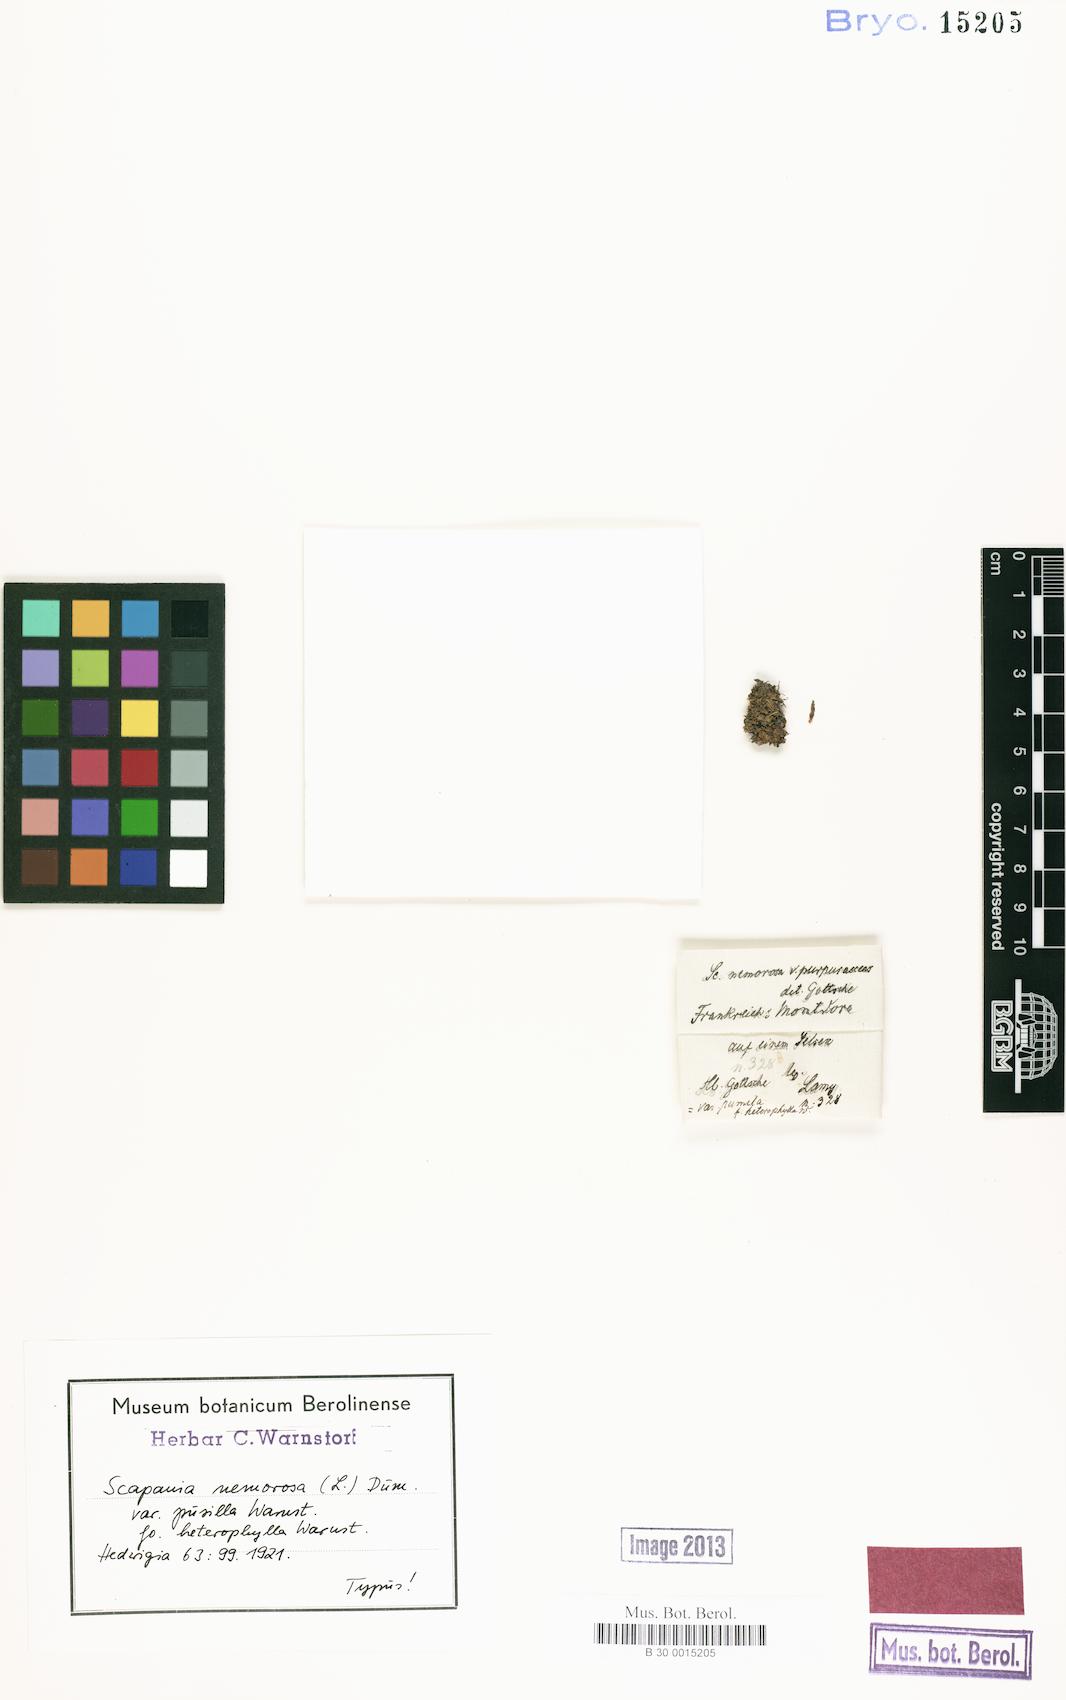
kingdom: Plantae
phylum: Marchantiophyta
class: Jungermanniopsida
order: Jungermanniales
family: Scapaniaceae
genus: Scapania
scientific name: Scapania nemorea
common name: Grove earwort
